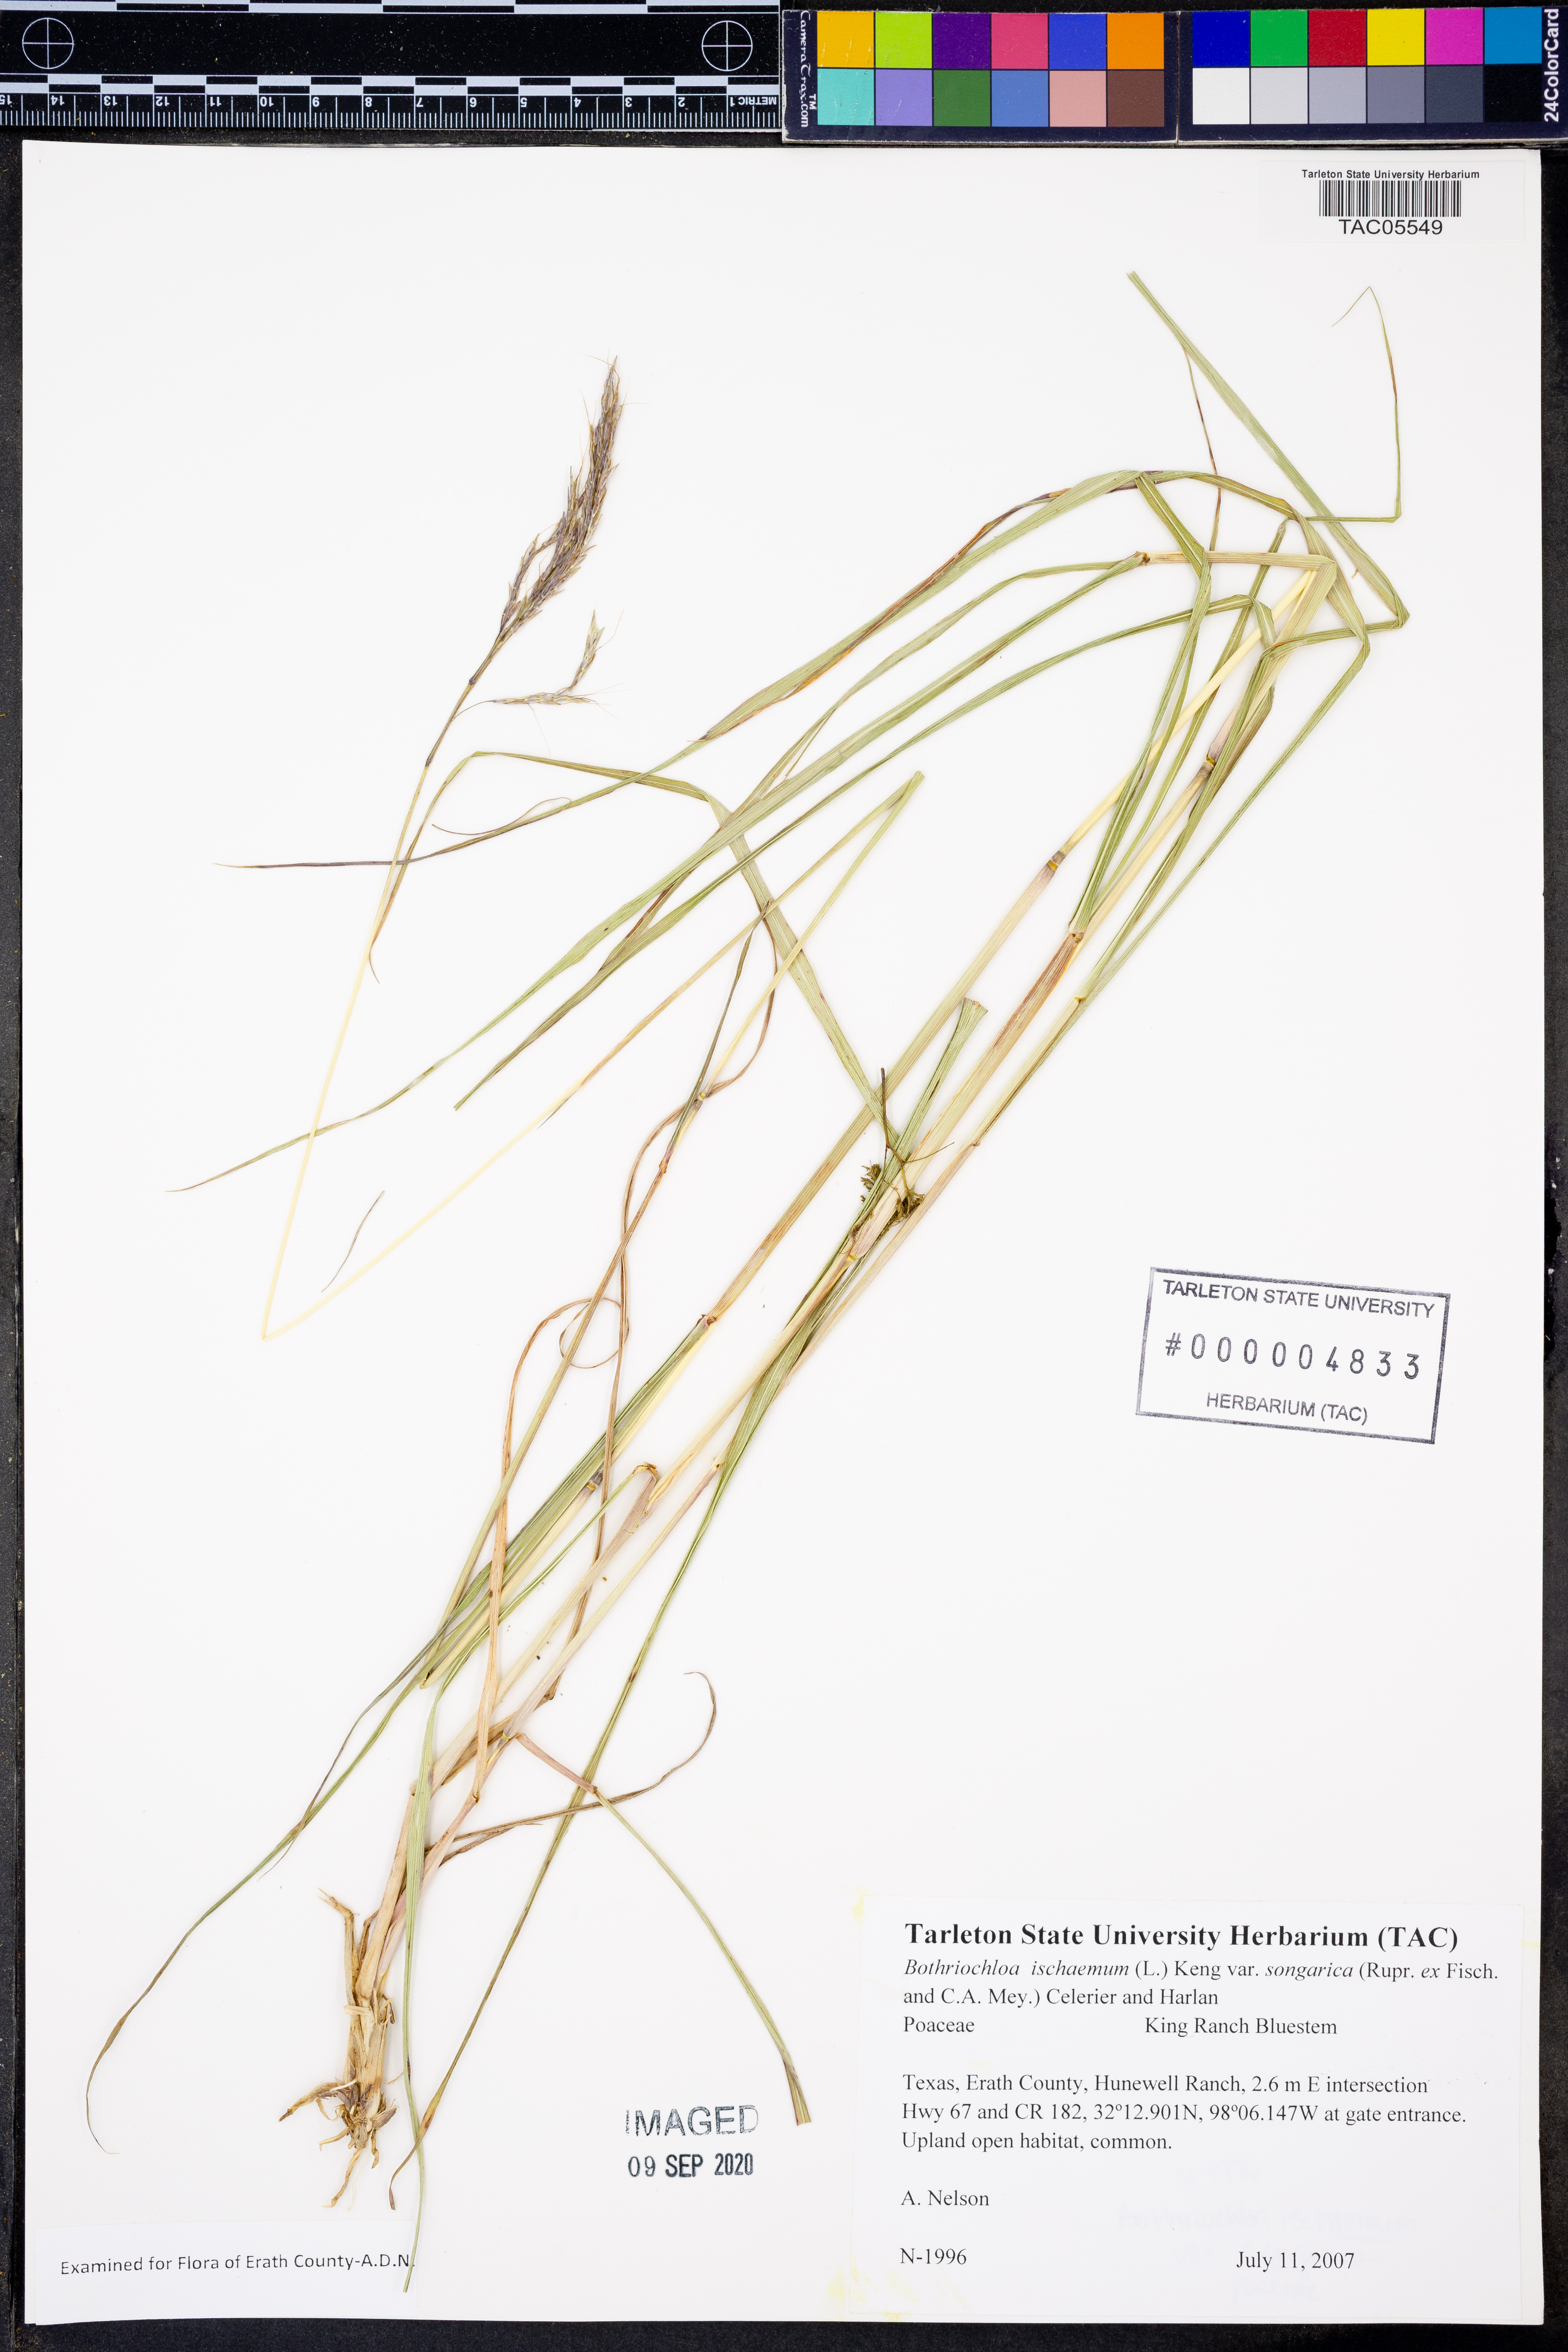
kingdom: Plantae
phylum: Tracheophyta
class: Liliopsida
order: Poales
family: Poaceae
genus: Bothriochloa
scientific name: Bothriochloa ischaemum
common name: Yellow bluestem
